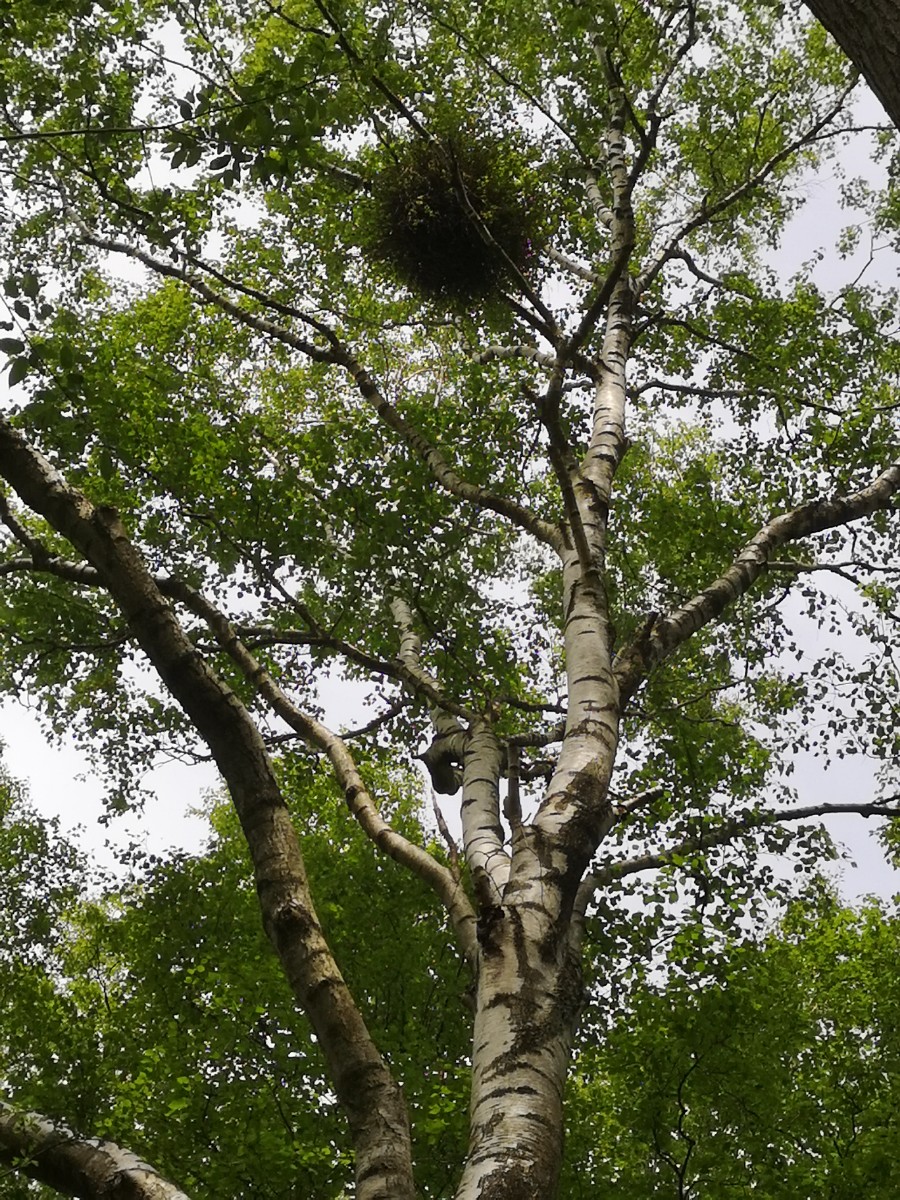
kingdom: Fungi
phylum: Ascomycota
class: Taphrinomycetes
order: Taphrinales
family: Taphrinaceae
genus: Taphrina
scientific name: Taphrina betulina
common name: hekse-sækdug
